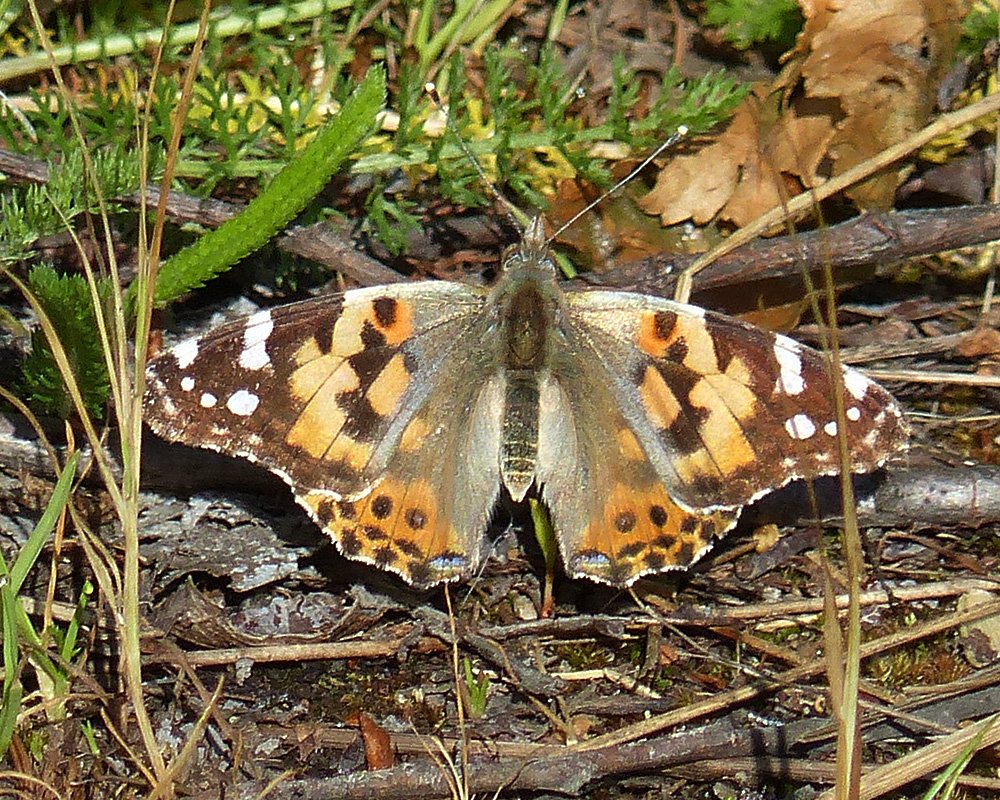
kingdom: Animalia
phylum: Arthropoda
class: Insecta
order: Lepidoptera
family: Nymphalidae
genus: Vanessa
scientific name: Vanessa cardui
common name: Painted Lady
